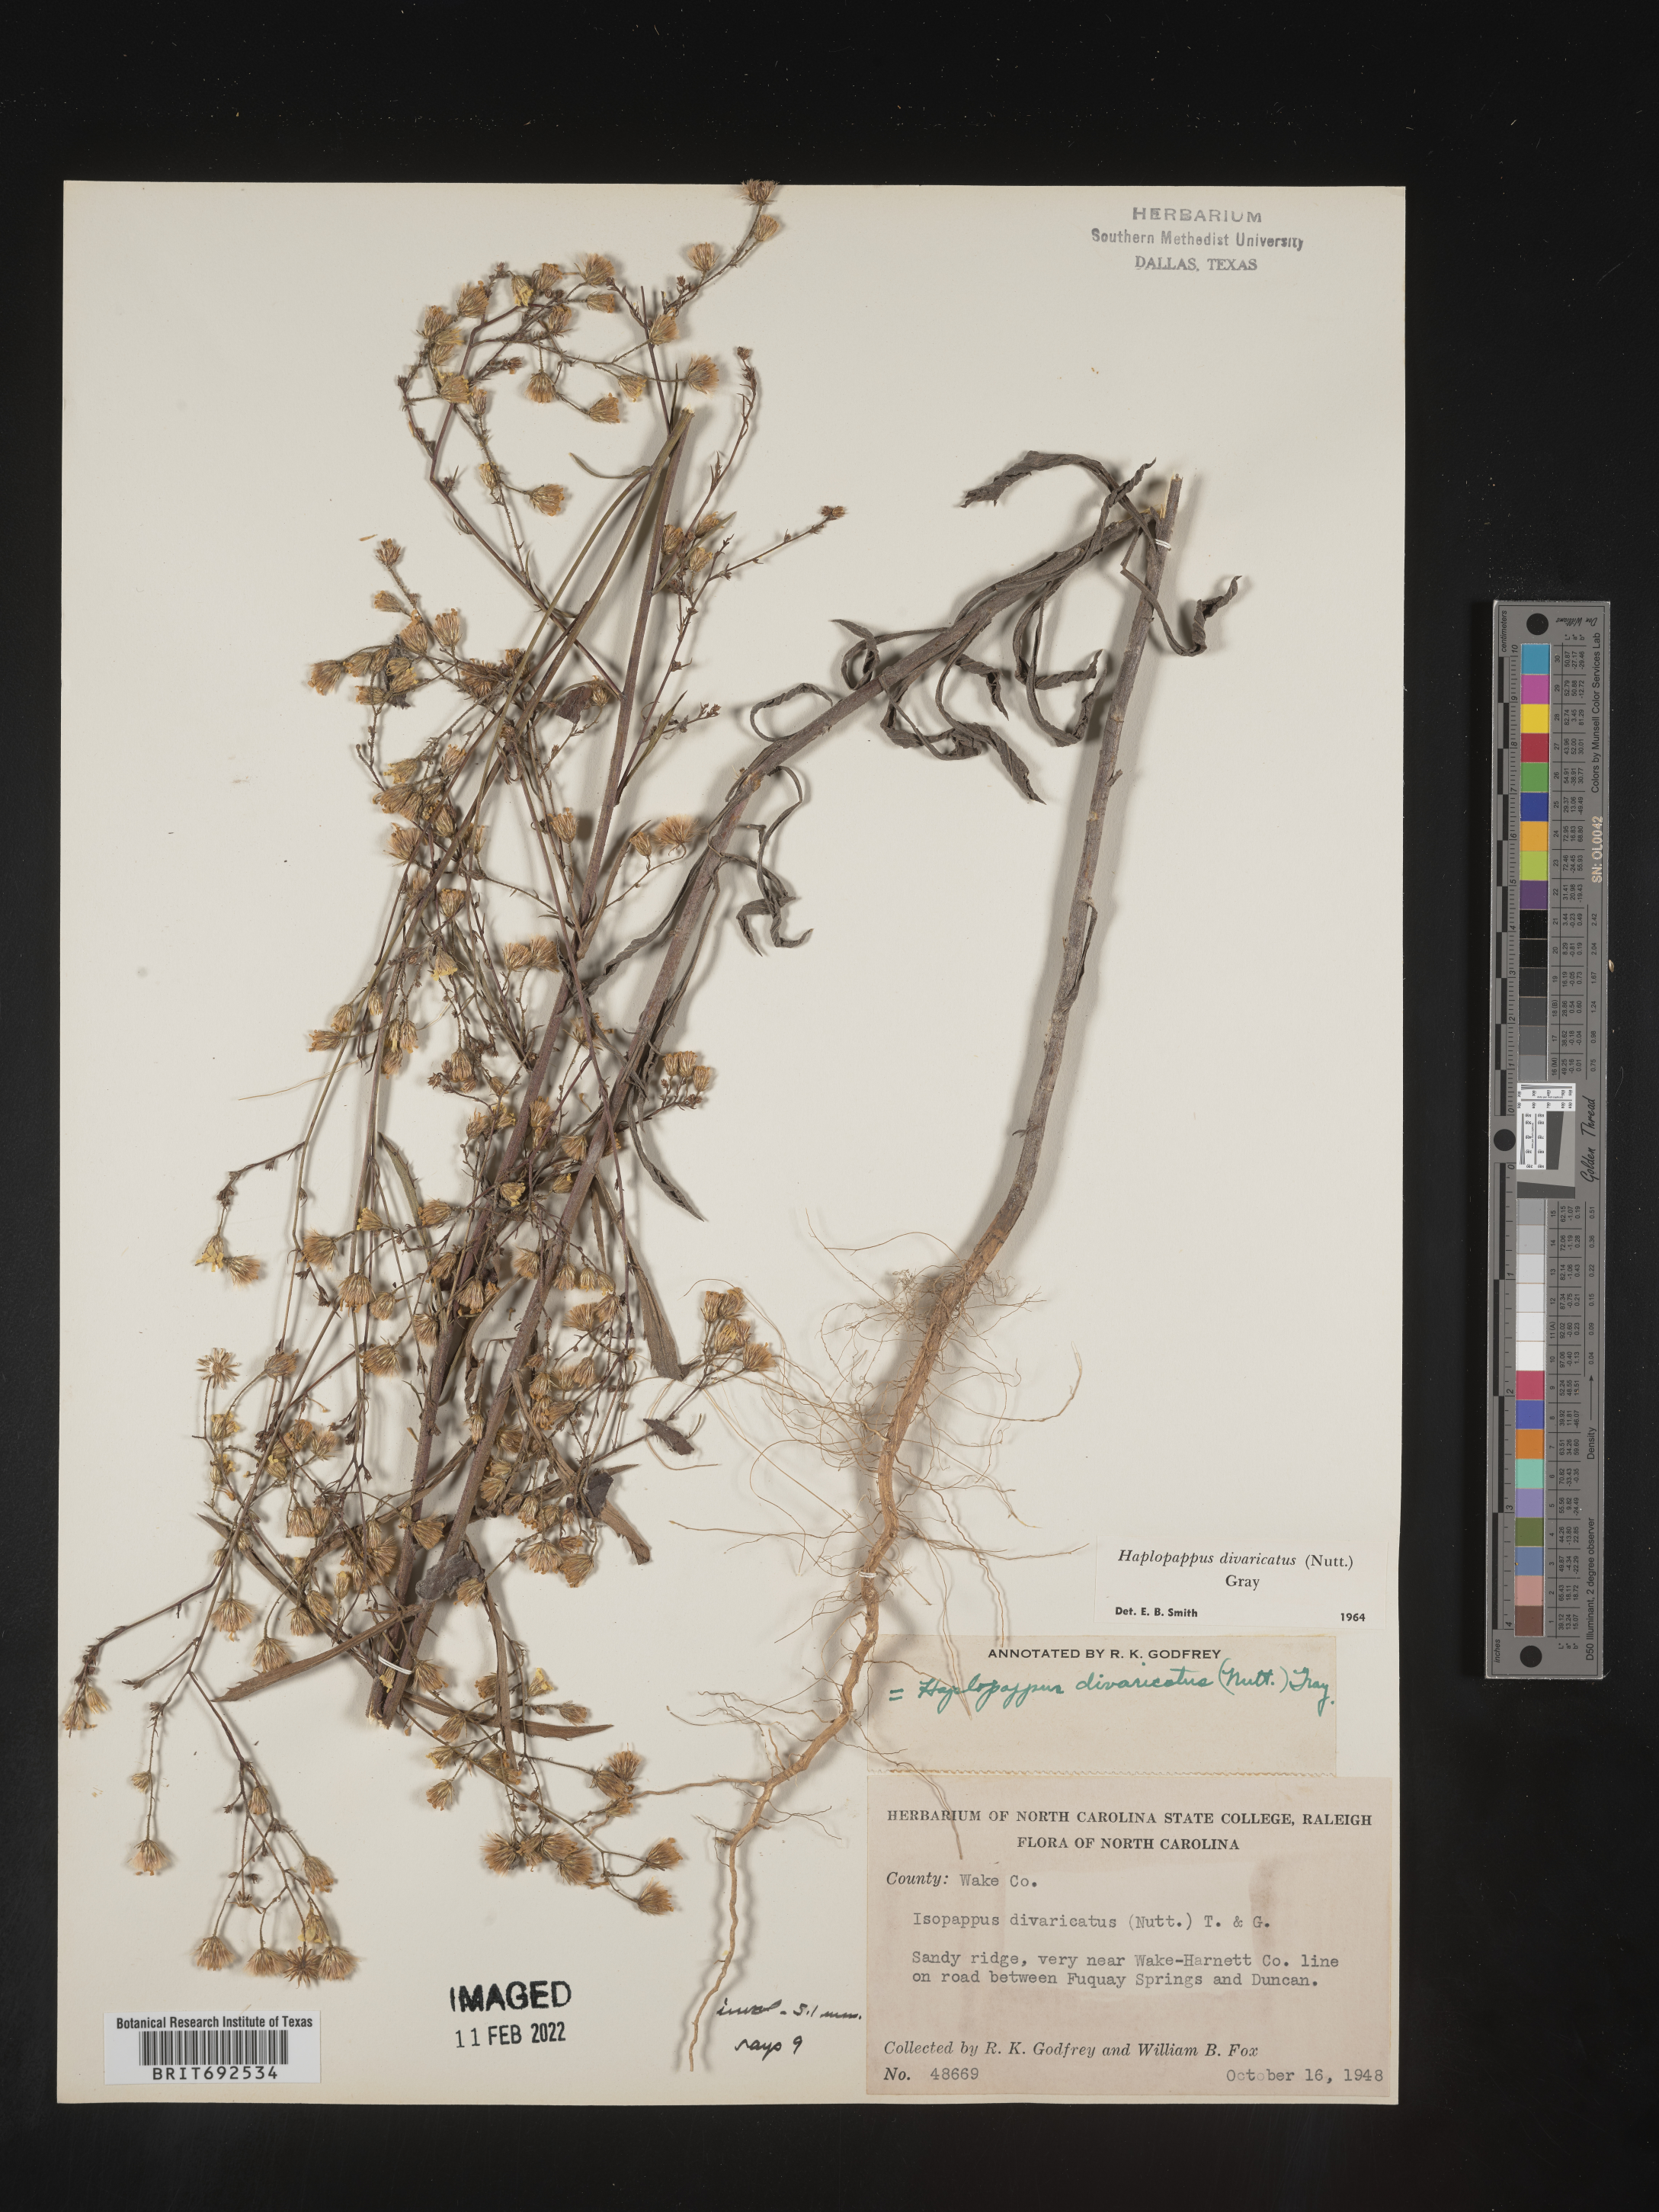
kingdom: Plantae
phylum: Tracheophyta
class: Magnoliopsida
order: Asterales
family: Asteraceae
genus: Croptilon
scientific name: Croptilon divaricatum
